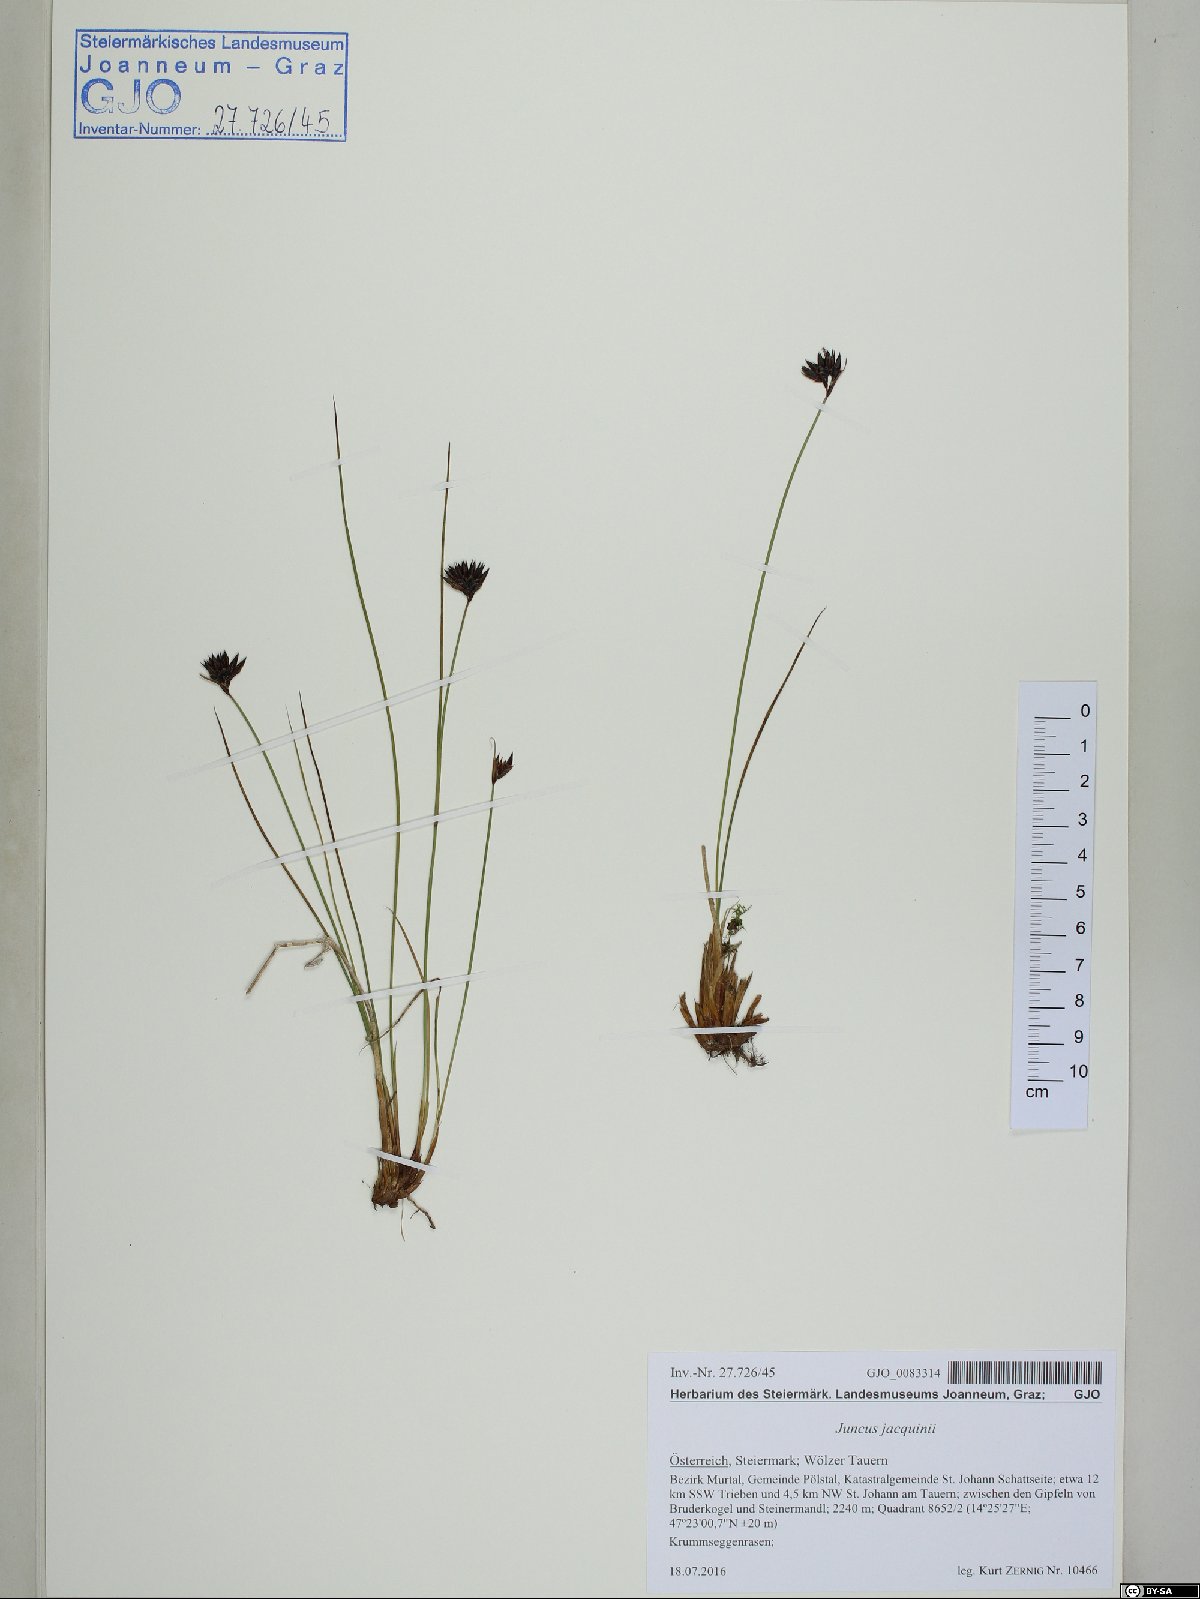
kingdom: Plantae
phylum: Tracheophyta
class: Liliopsida
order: Poales
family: Juncaceae
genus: Juncus
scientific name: Juncus jacquinii
